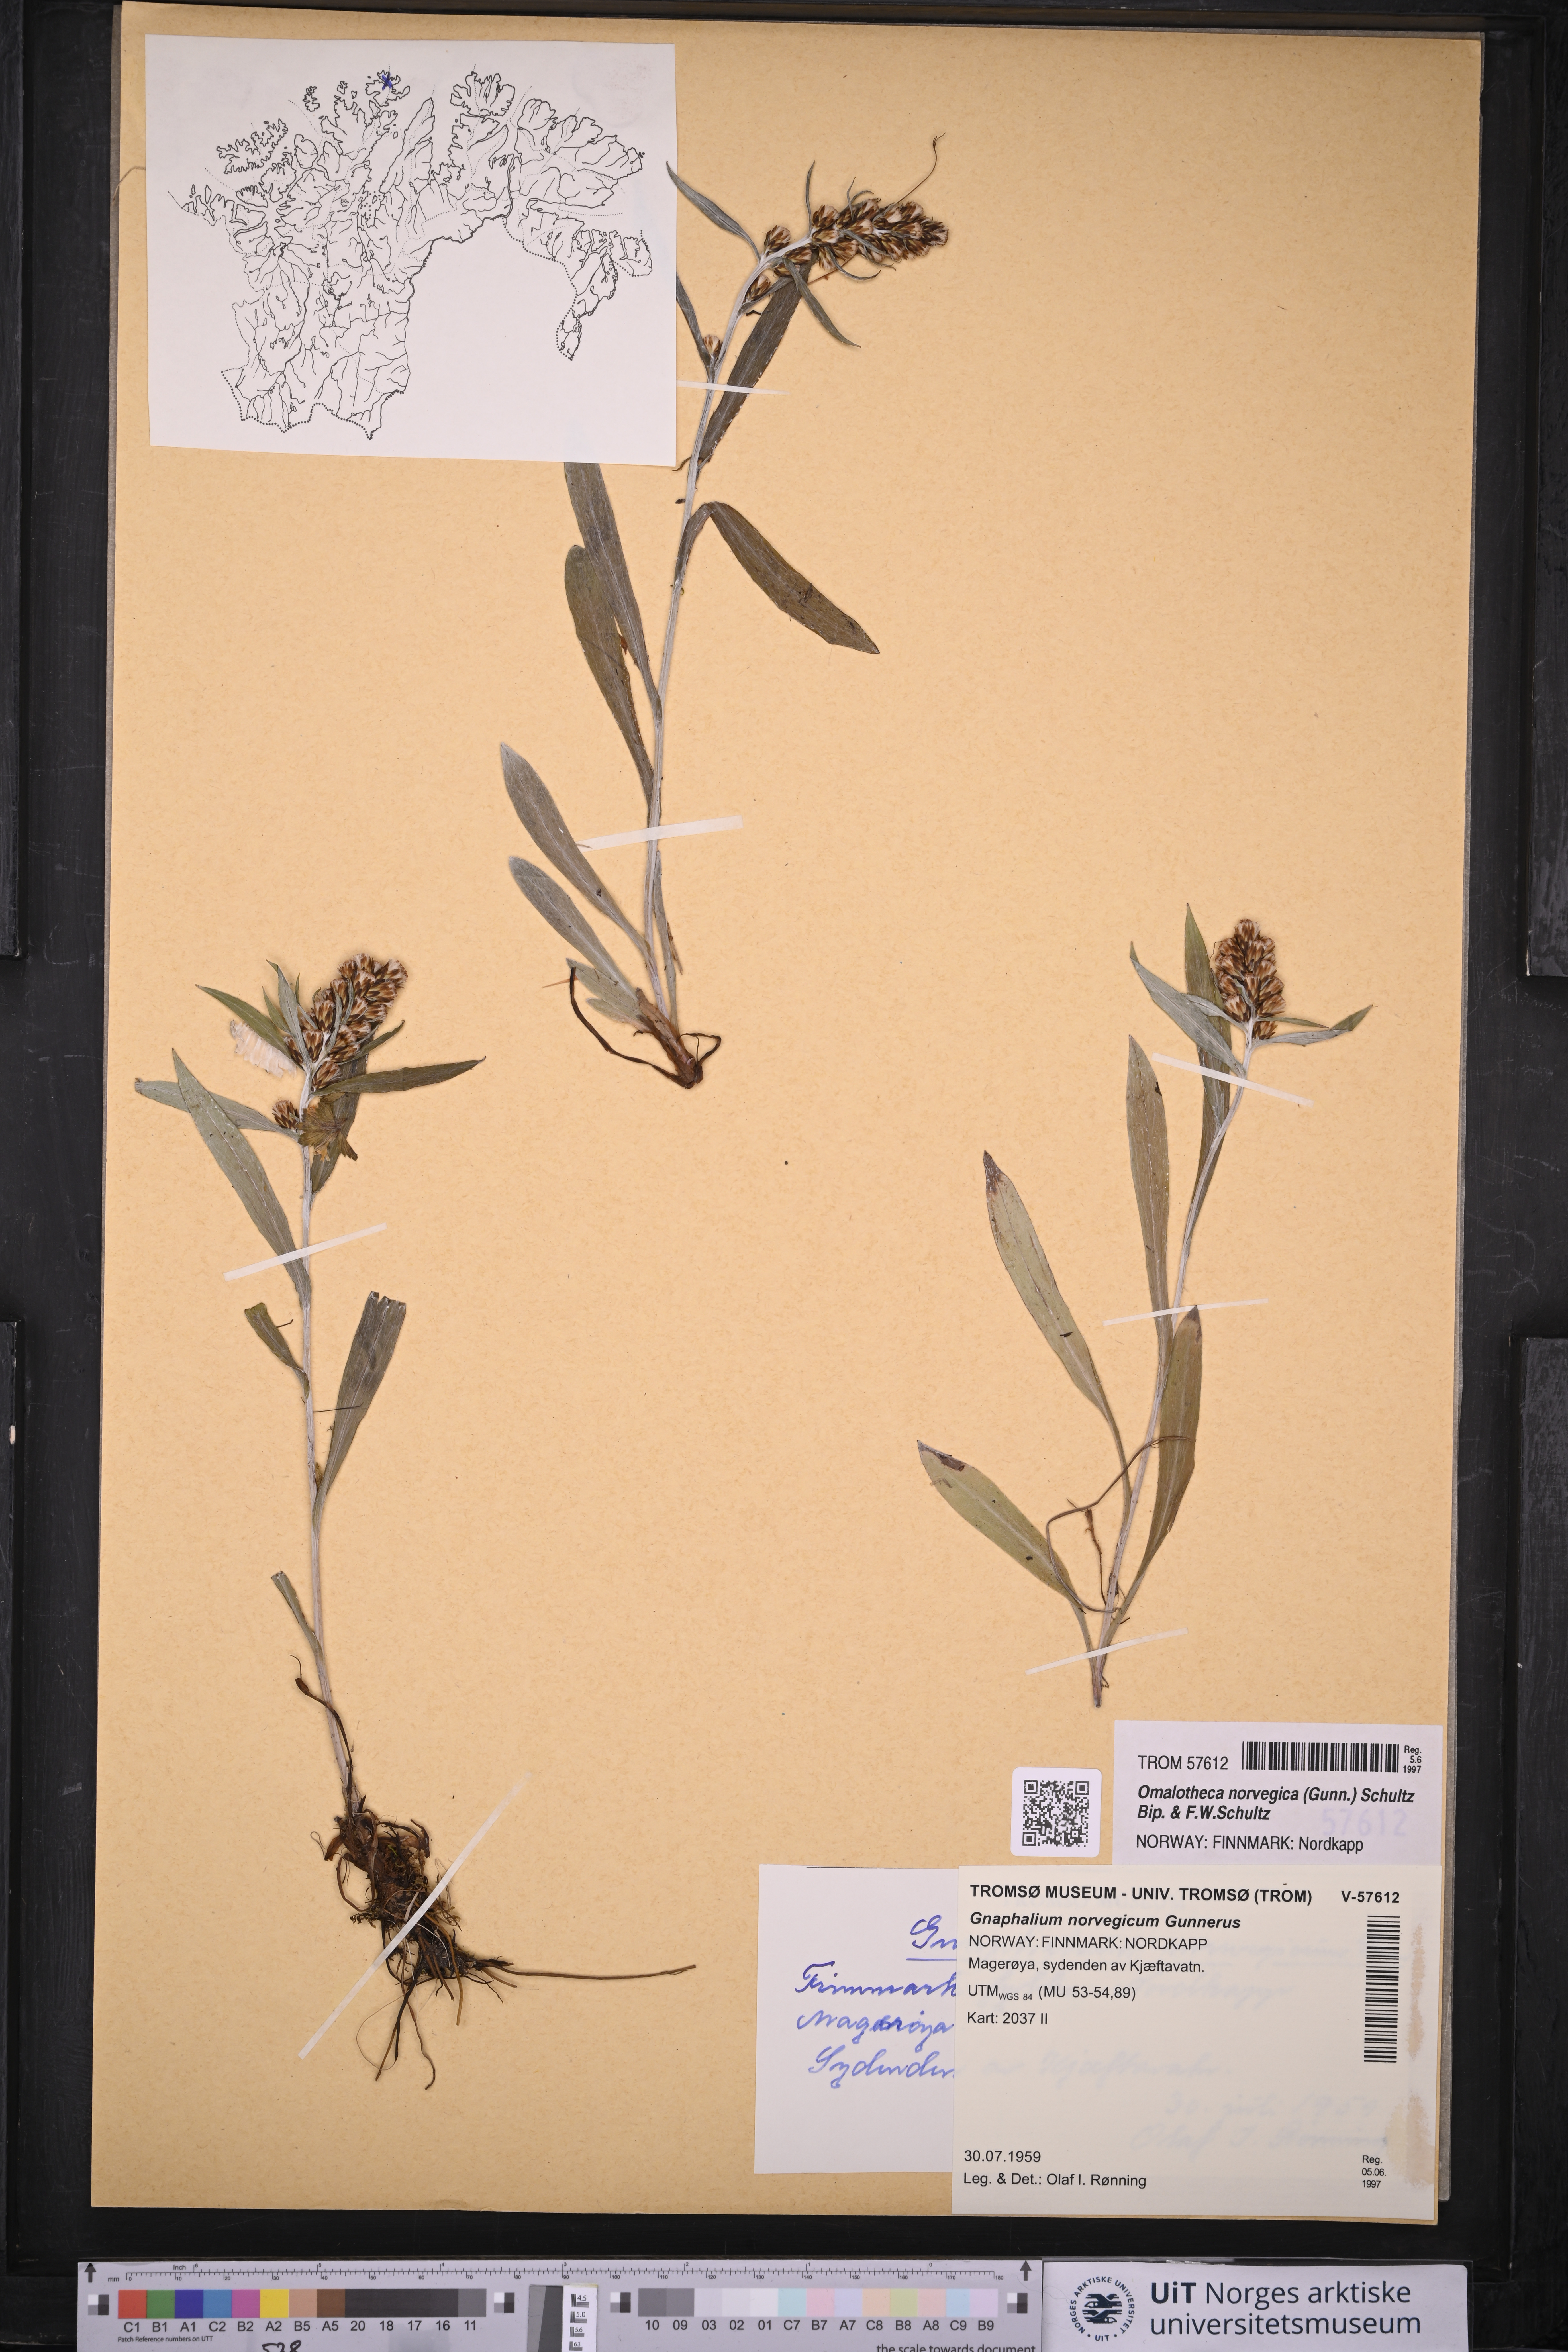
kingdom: Plantae
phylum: Tracheophyta
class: Magnoliopsida
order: Asterales
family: Asteraceae
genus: Omalotheca
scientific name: Omalotheca norvegica
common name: Norwegian arctic-cudweed
